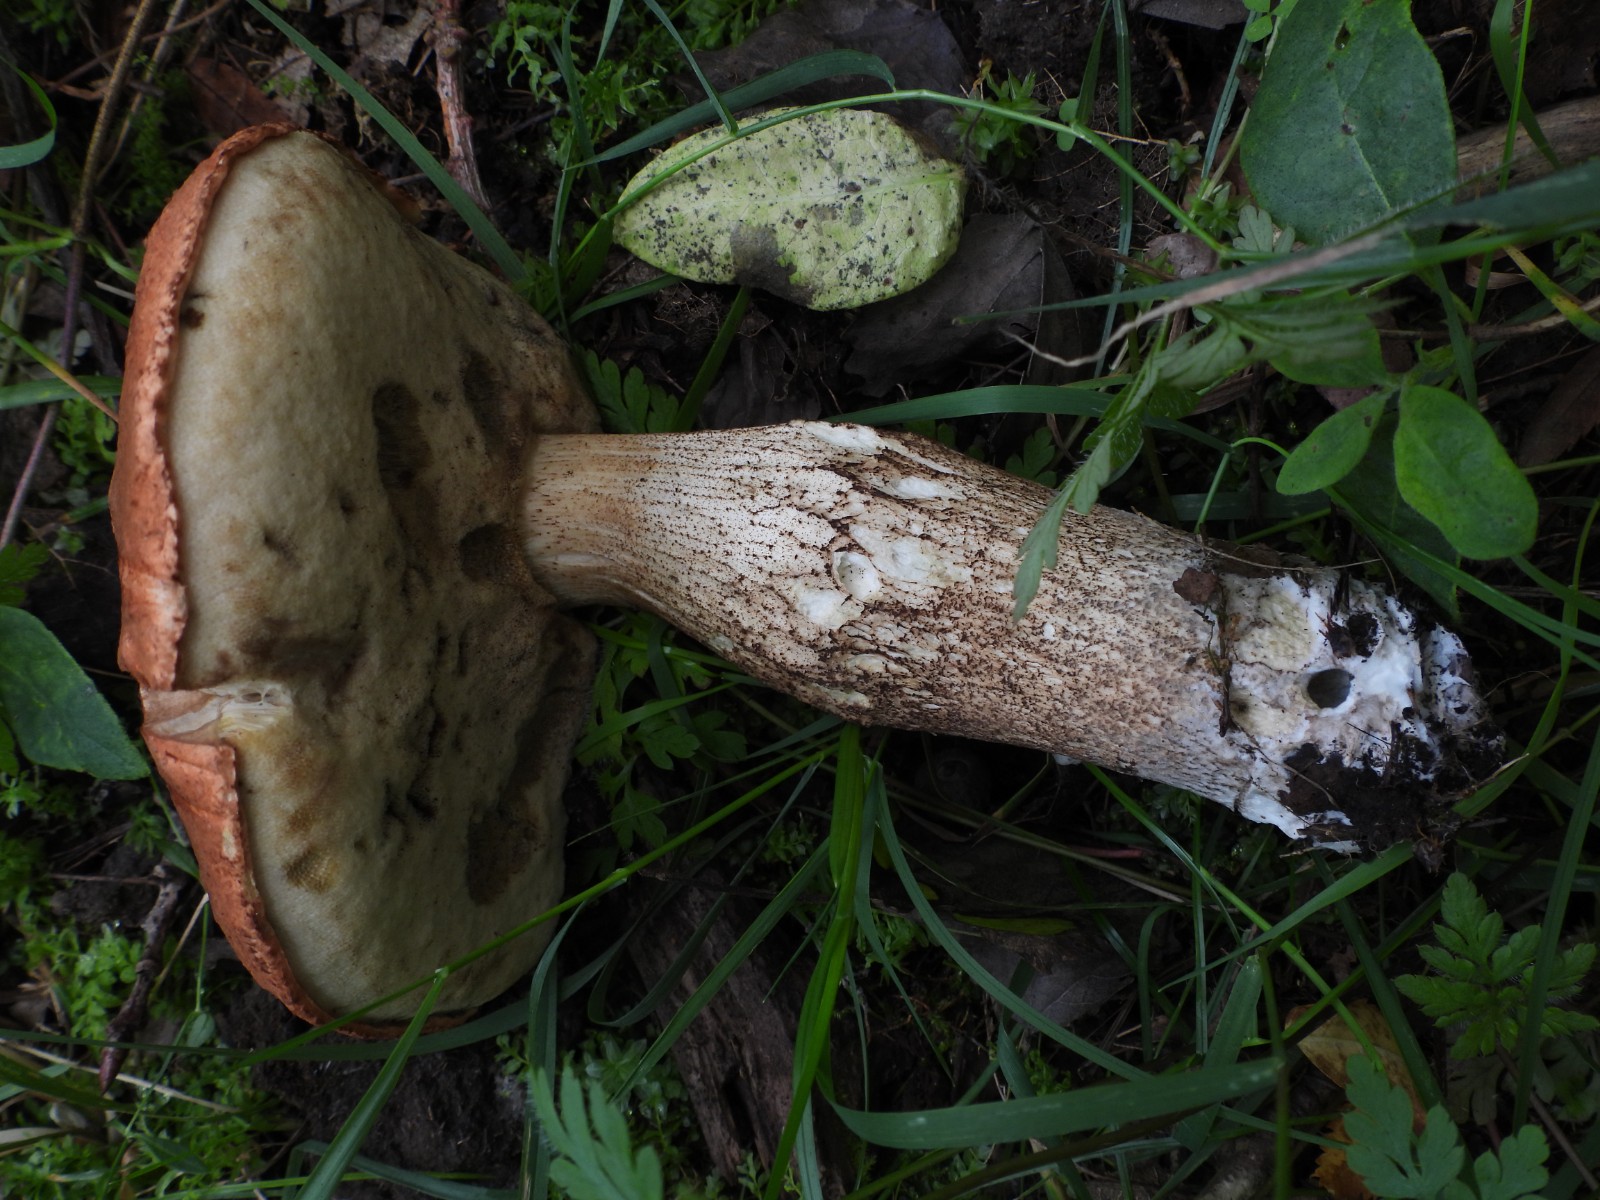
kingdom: Fungi
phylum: Basidiomycota
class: Agaricomycetes
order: Boletales
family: Boletaceae
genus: Leccinum
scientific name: Leccinum aurantiacum
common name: rustrød skælrørhat
